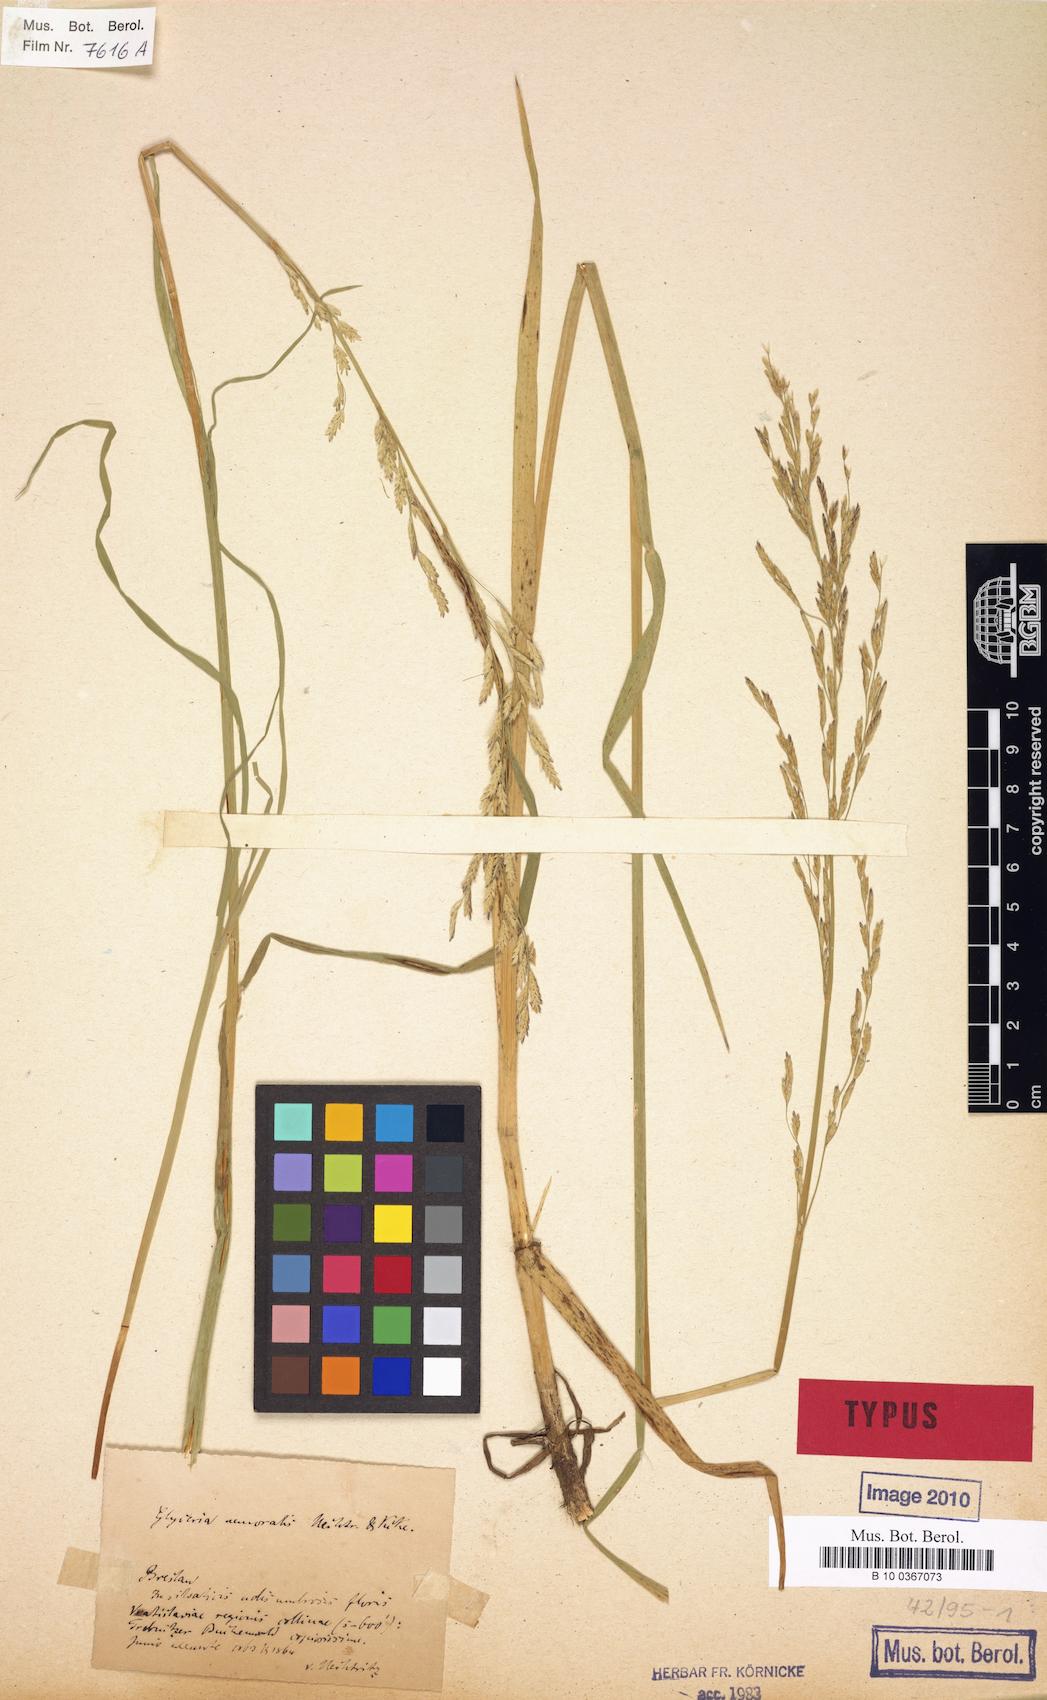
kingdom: Plantae
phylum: Tracheophyta
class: Liliopsida
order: Poales
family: Poaceae
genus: Glyceria
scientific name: Glyceria nemoralis
